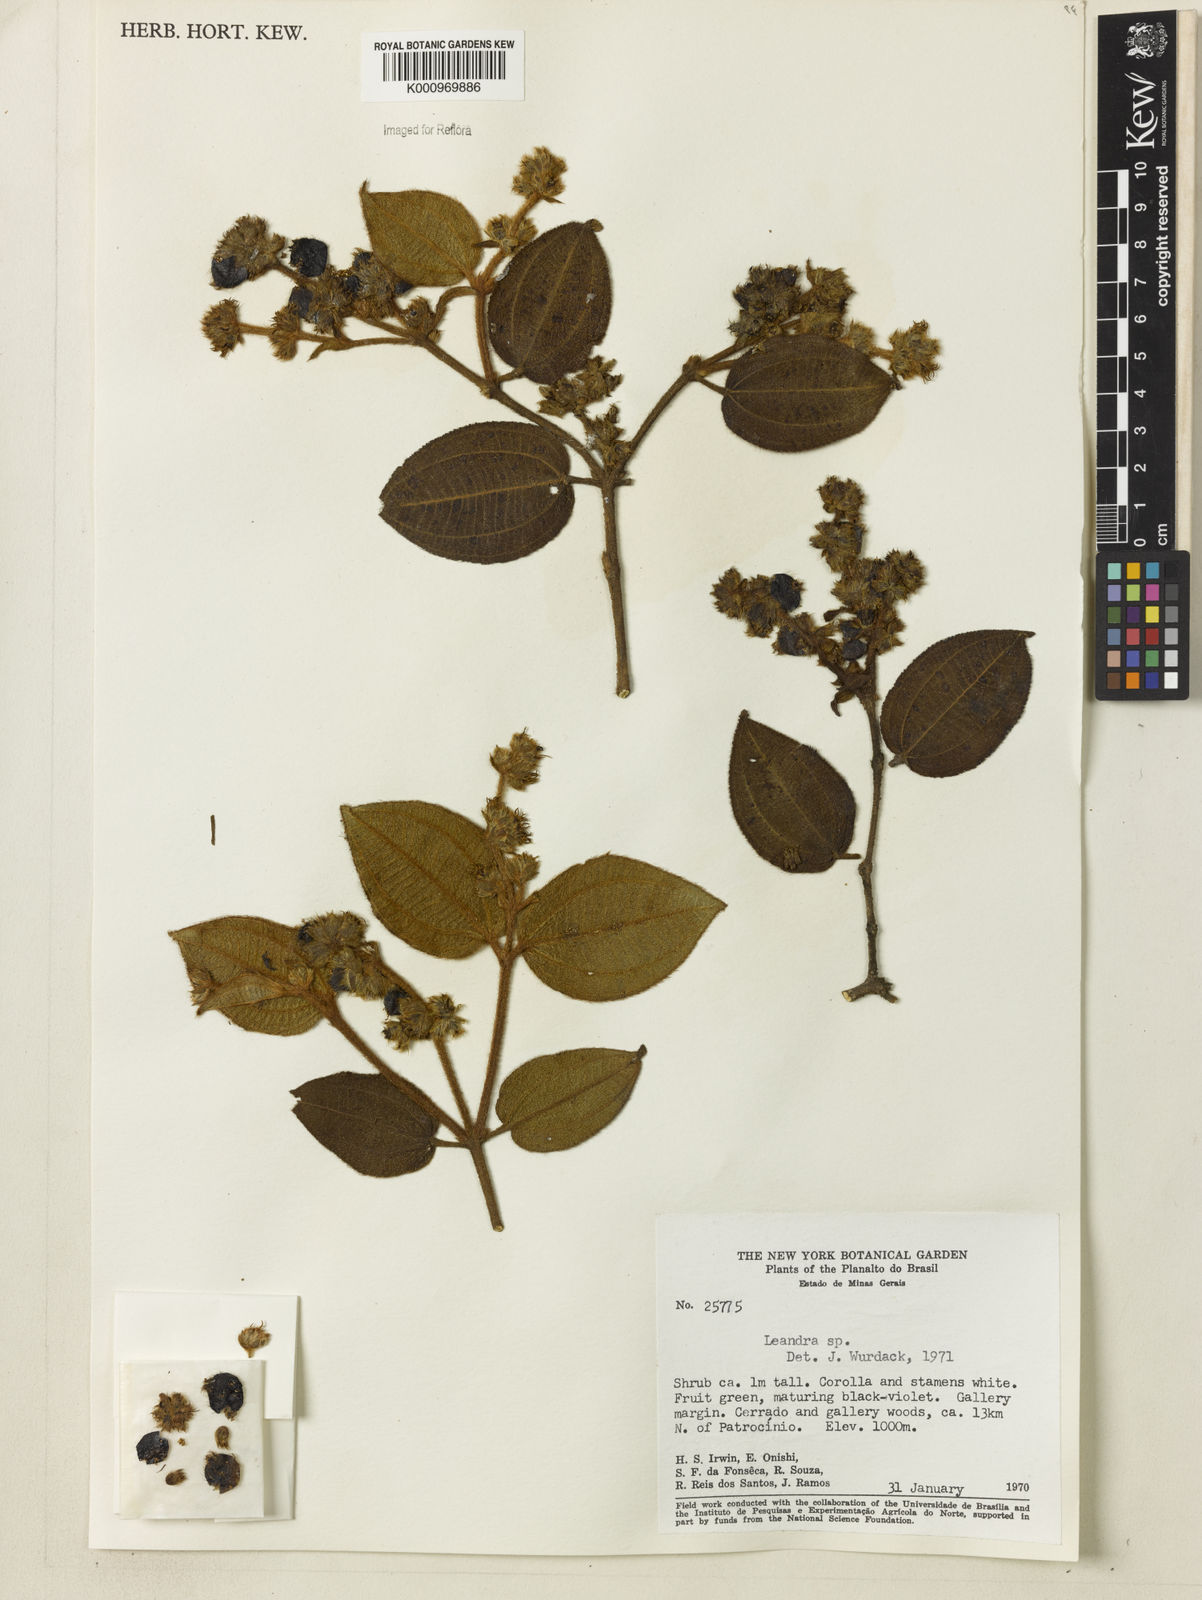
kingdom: Plantae
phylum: Tracheophyta
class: Magnoliopsida
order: Myrtales
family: Melastomataceae
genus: Miconia
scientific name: Miconia
